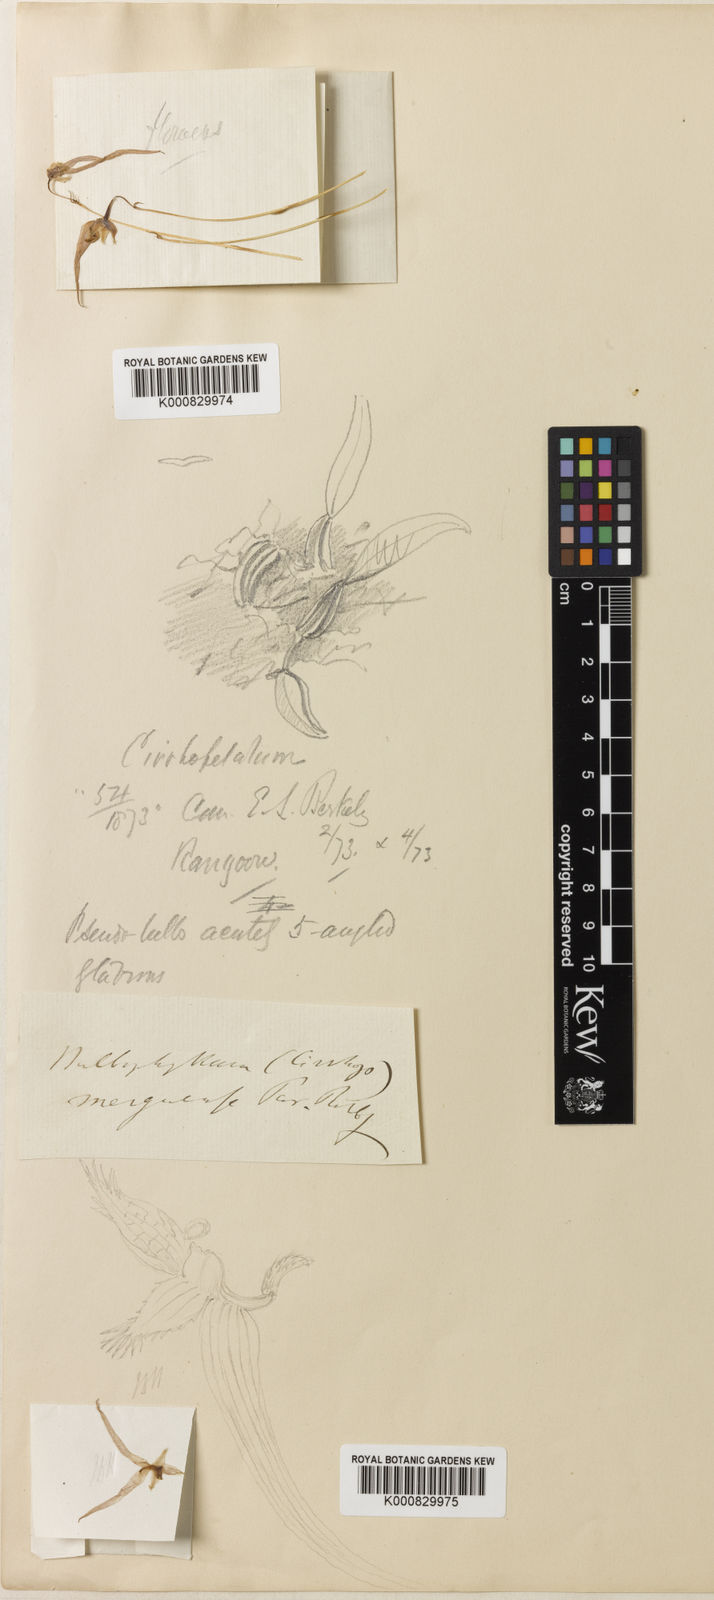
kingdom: Plantae
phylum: Tracheophyta
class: Liliopsida
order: Asparagales
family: Orchidaceae
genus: Bulbophyllum
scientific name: Bulbophyllum lineatum
